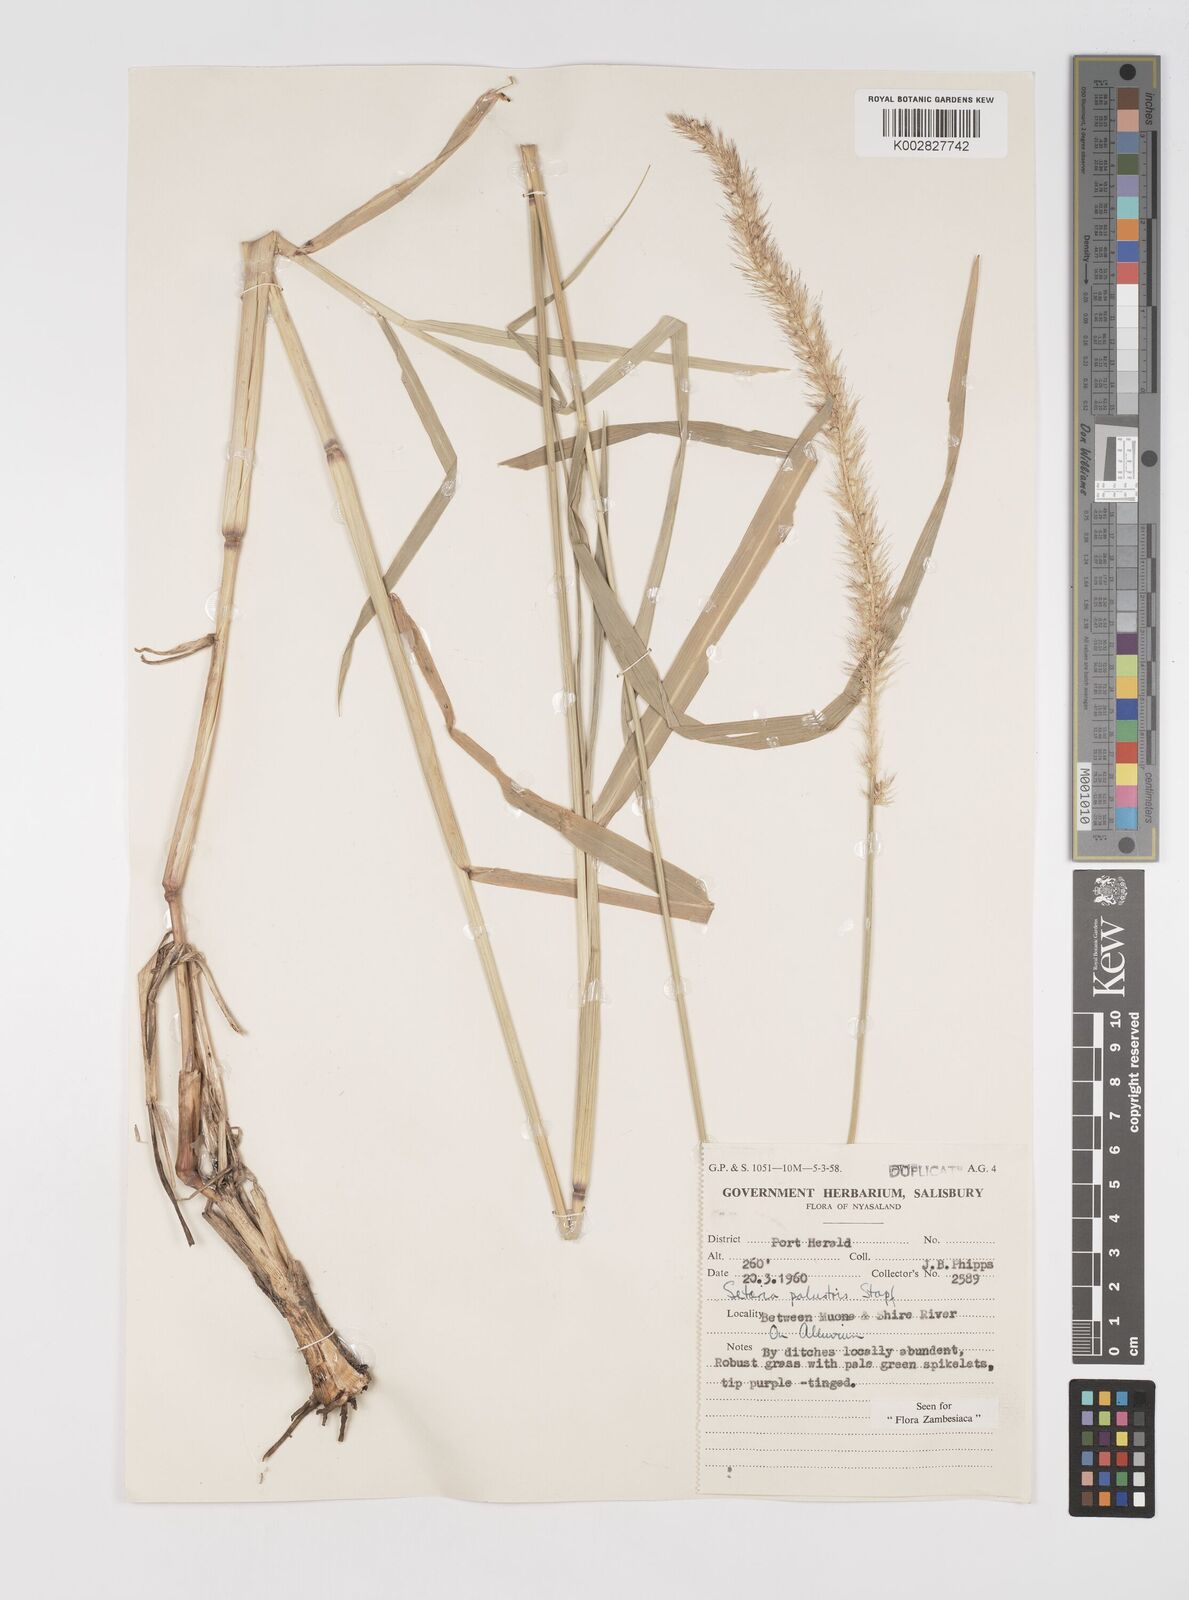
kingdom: Plantae
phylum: Tracheophyta
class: Liliopsida
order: Poales
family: Poaceae
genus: Setaria
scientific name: Setaria incrassata
